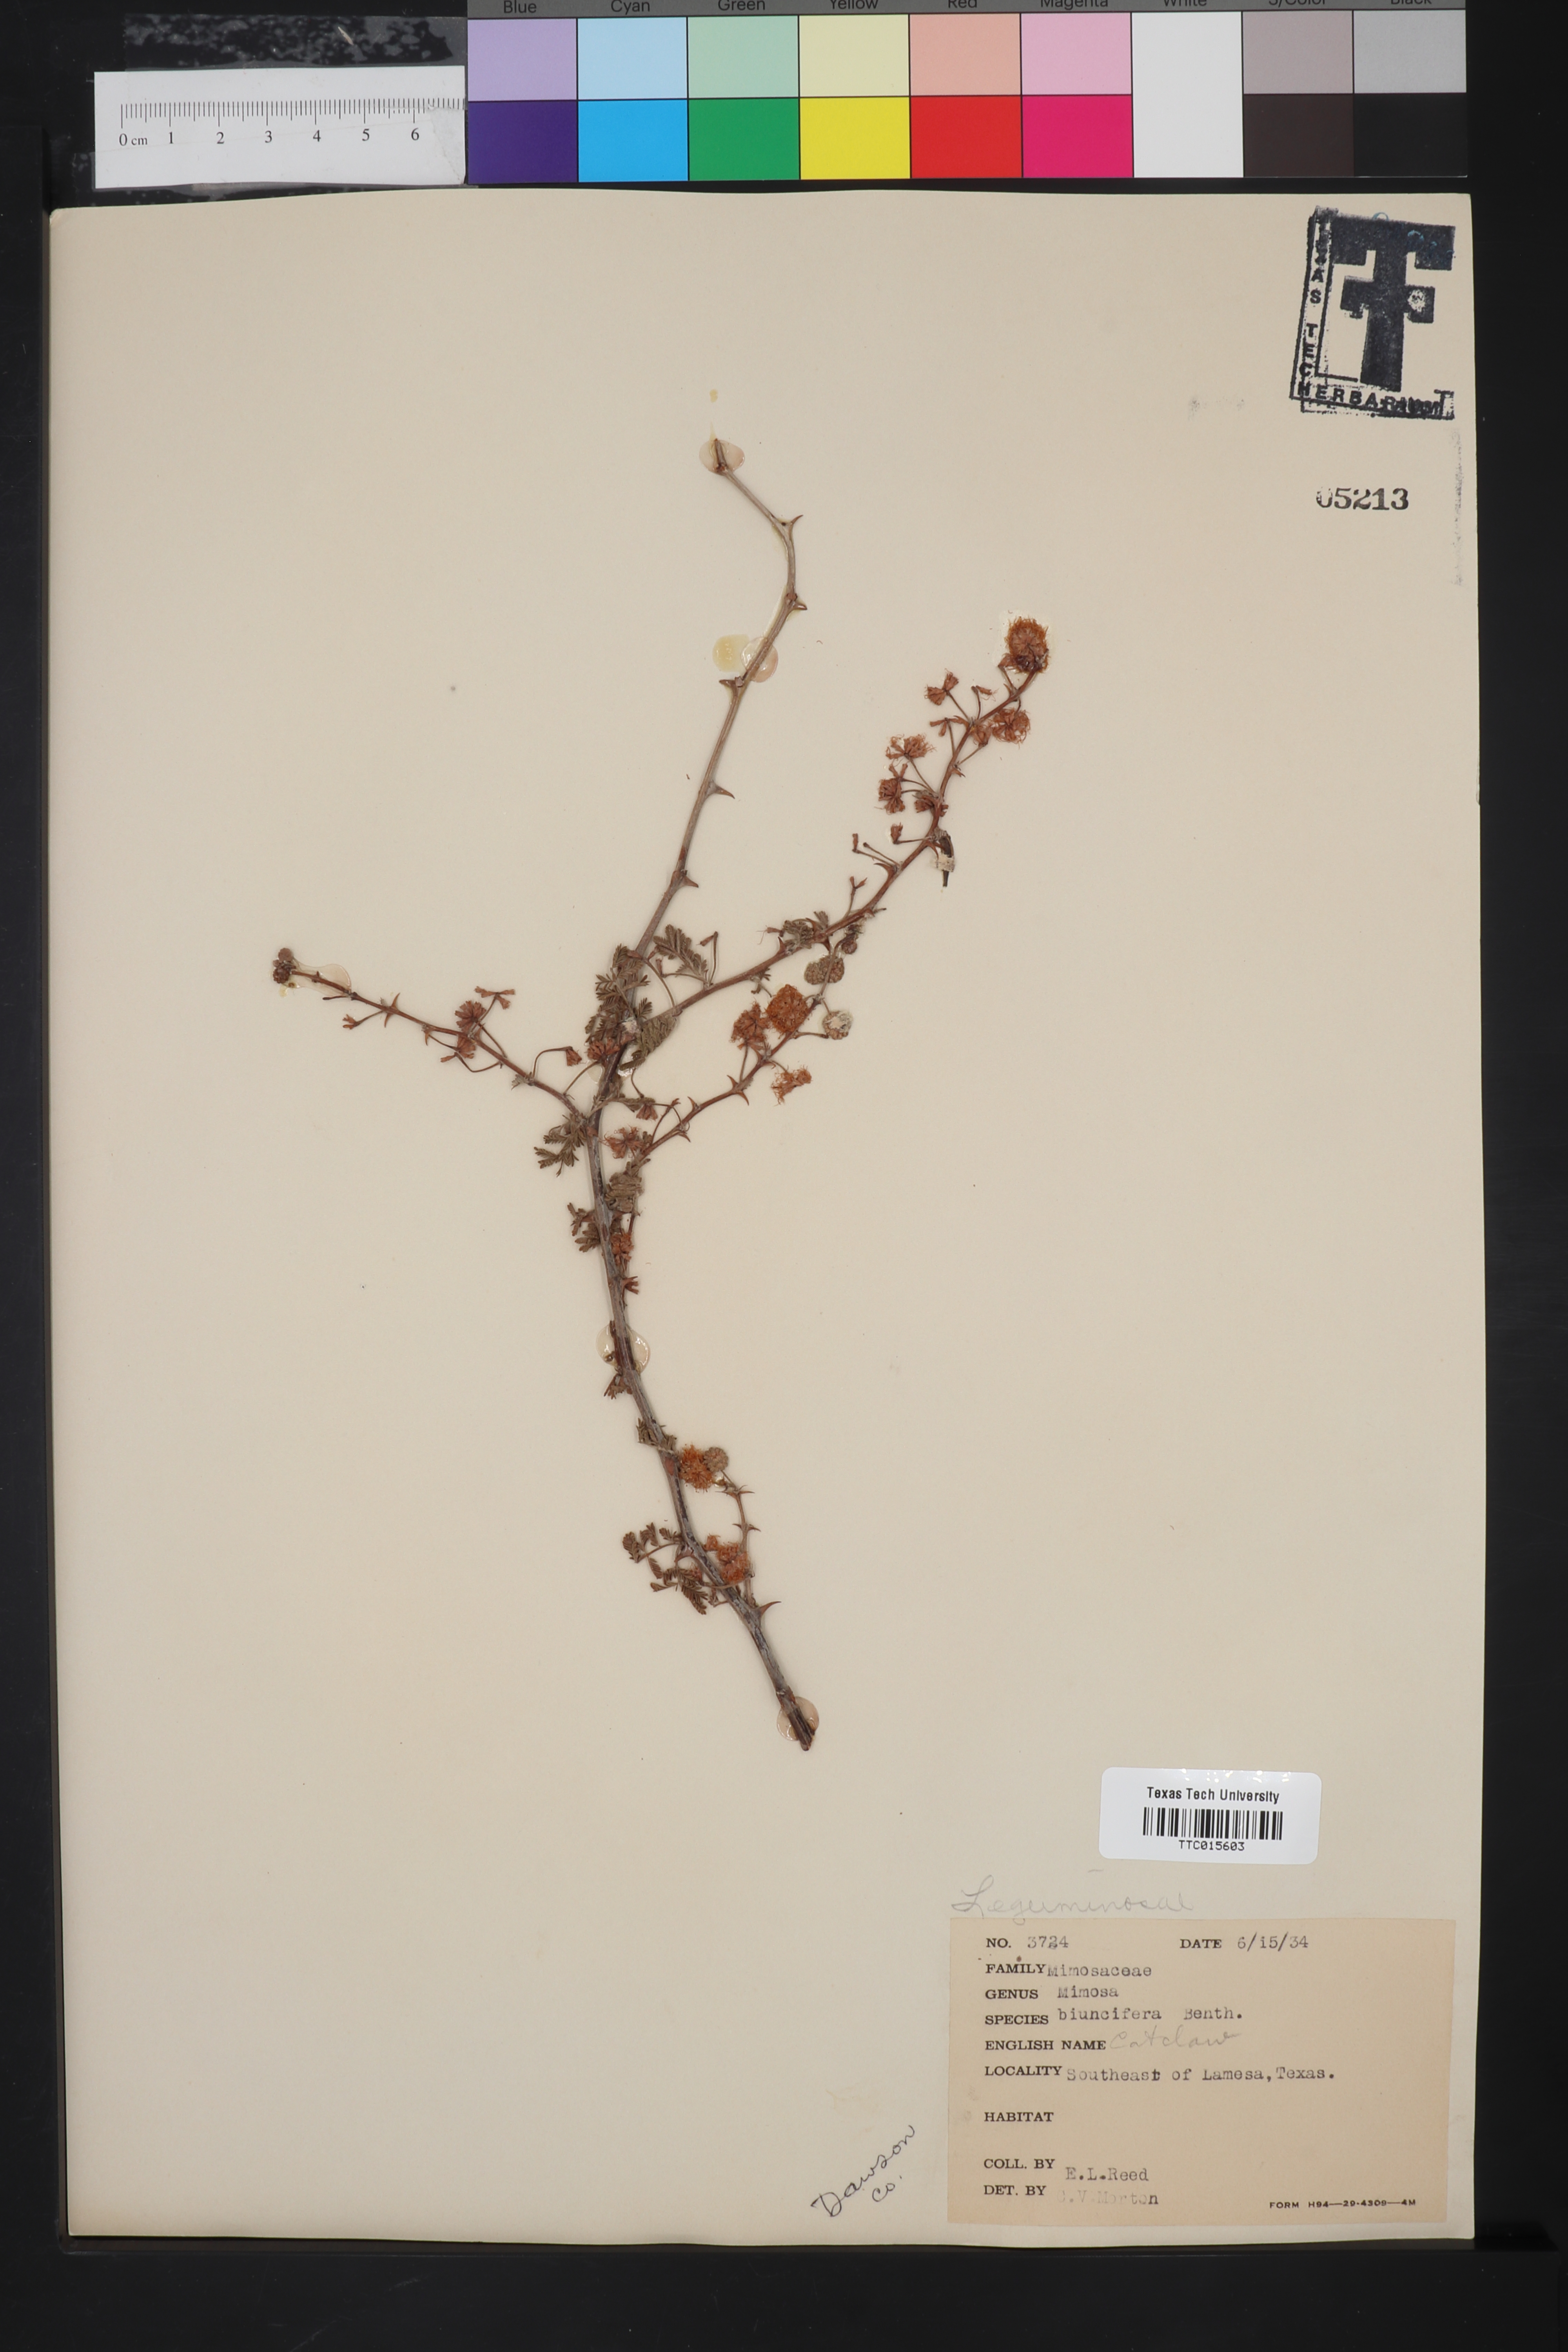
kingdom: Plantae
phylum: Tracheophyta
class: Magnoliopsida
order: Fabales
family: Fabaceae
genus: Mimosa
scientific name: Mimosa biuncifera
